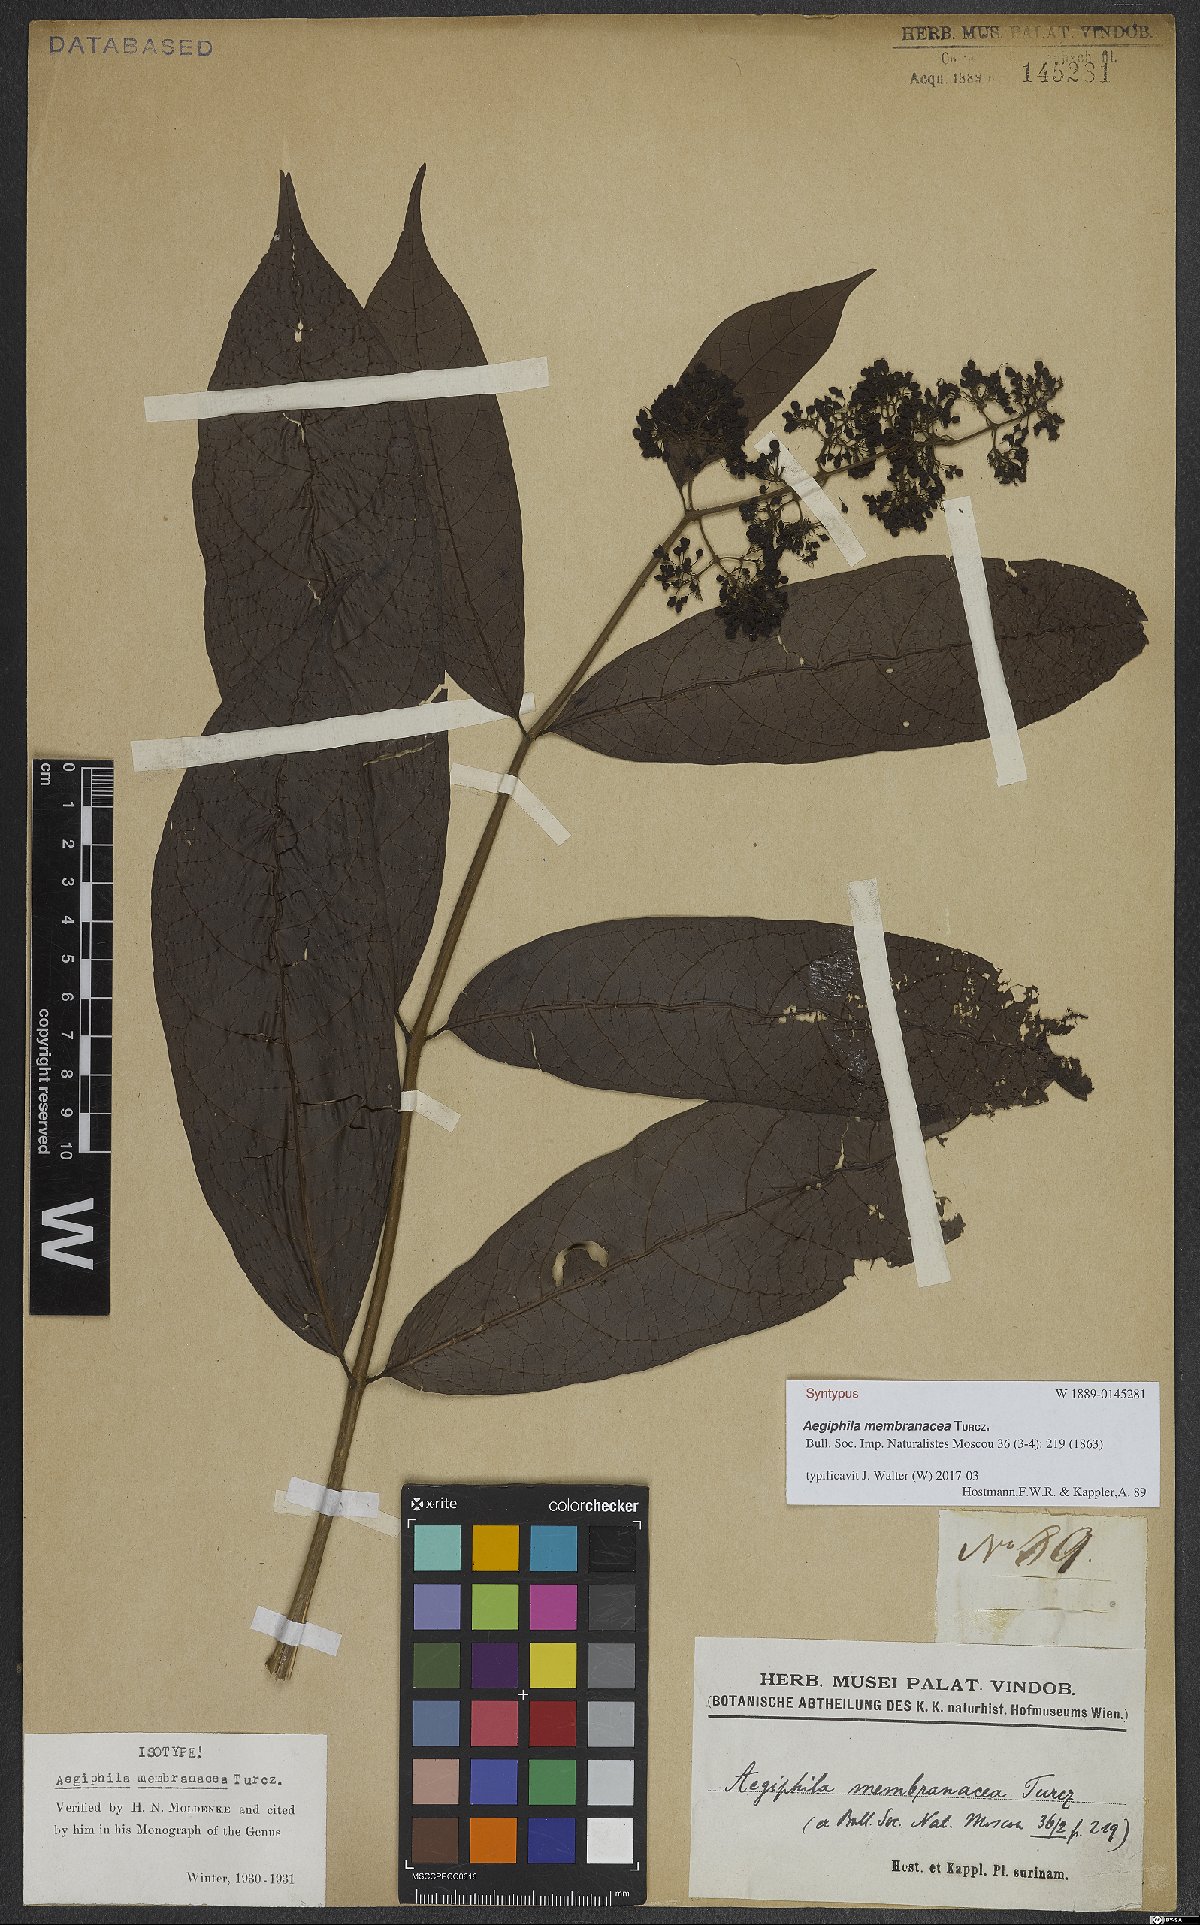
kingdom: Plantae
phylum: Tracheophyta
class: Magnoliopsida
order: Lamiales
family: Lamiaceae
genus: Aegiphila
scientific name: Aegiphila membranacea
